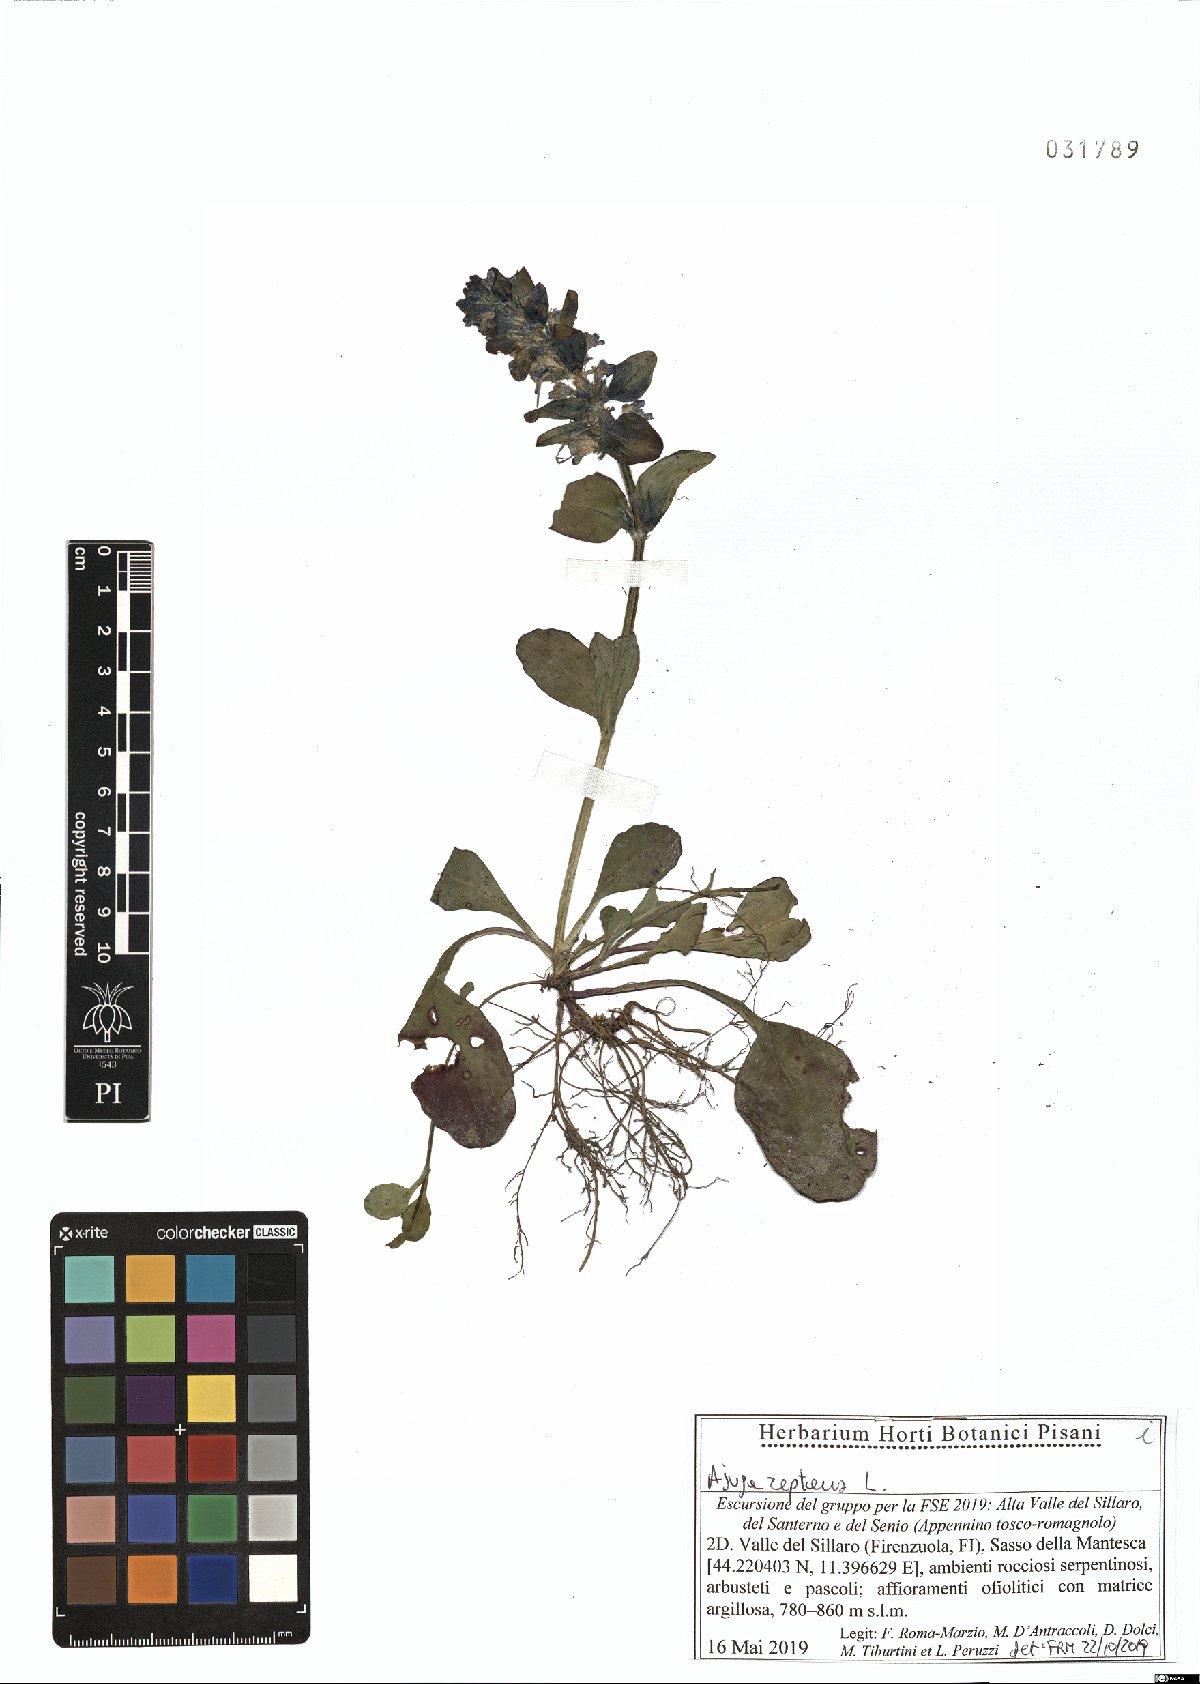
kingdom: Plantae
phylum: Tracheophyta
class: Magnoliopsida
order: Lamiales
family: Lamiaceae
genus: Ajuga
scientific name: Ajuga reptans
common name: Bugle
